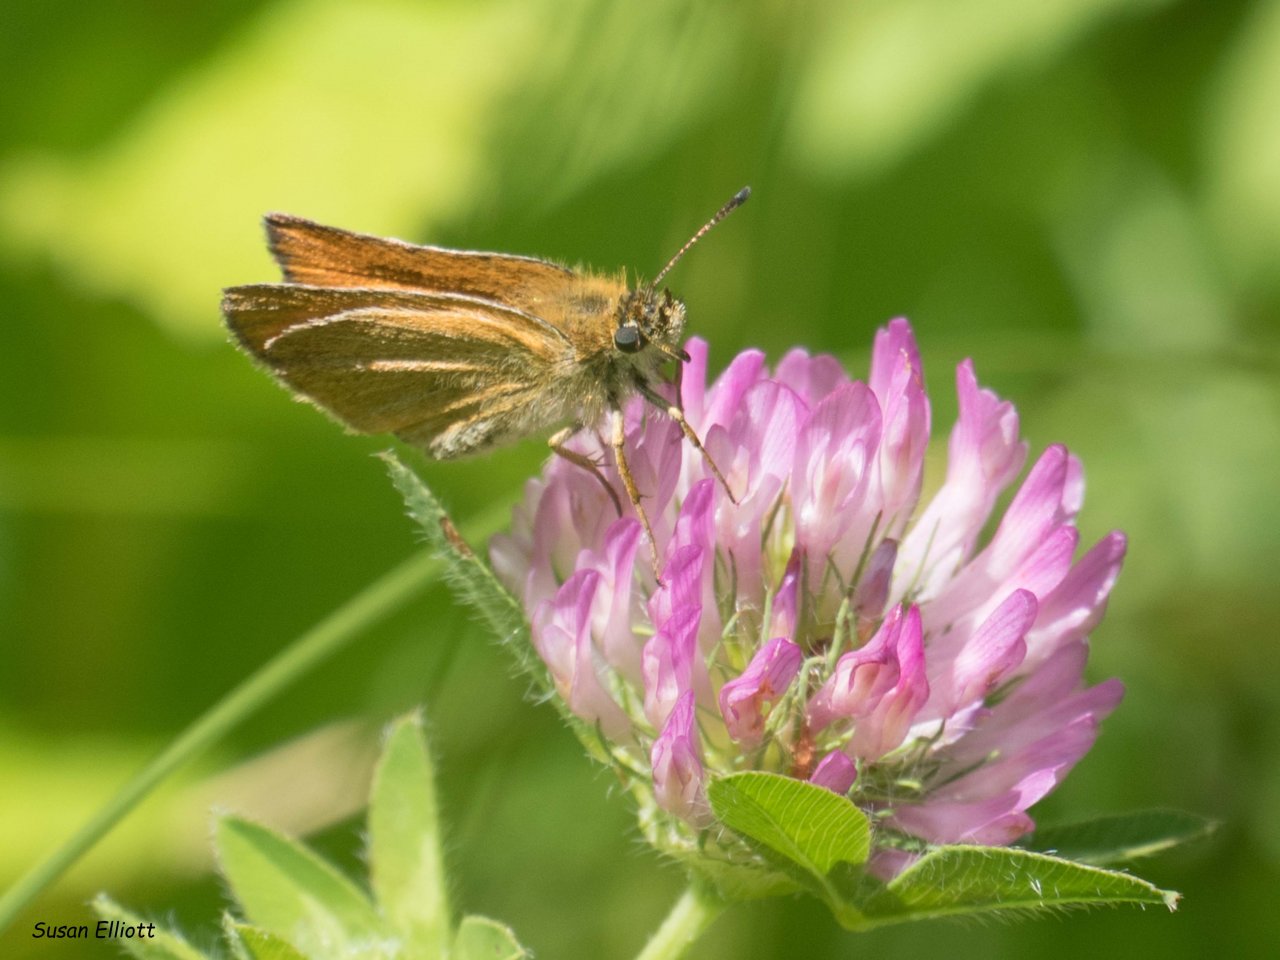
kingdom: Animalia
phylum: Arthropoda
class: Insecta
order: Lepidoptera
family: Hesperiidae
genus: Thymelicus
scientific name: Thymelicus lineola
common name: European Skipper
